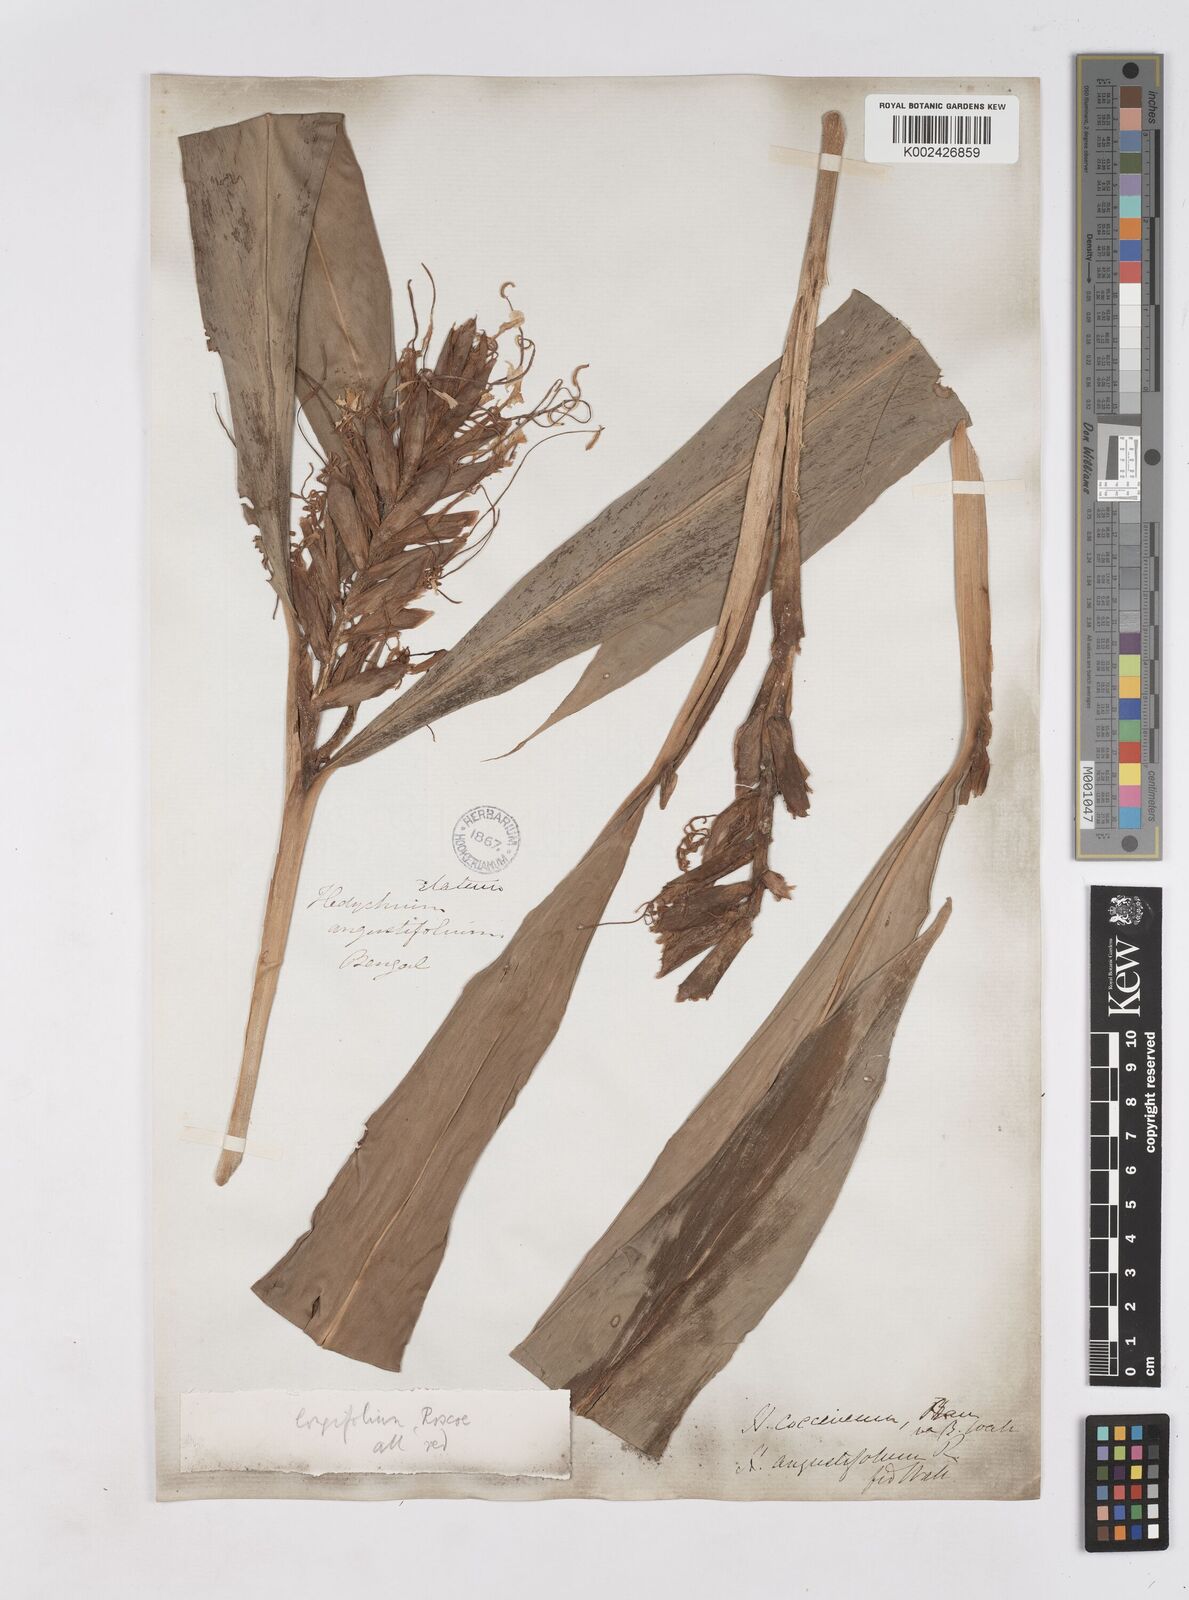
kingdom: Plantae
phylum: Tracheophyta
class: Liliopsida
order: Zingiberales
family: Zingiberaceae
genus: Hedychium
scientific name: Hedychium coccineum
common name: Red ginger-lily
